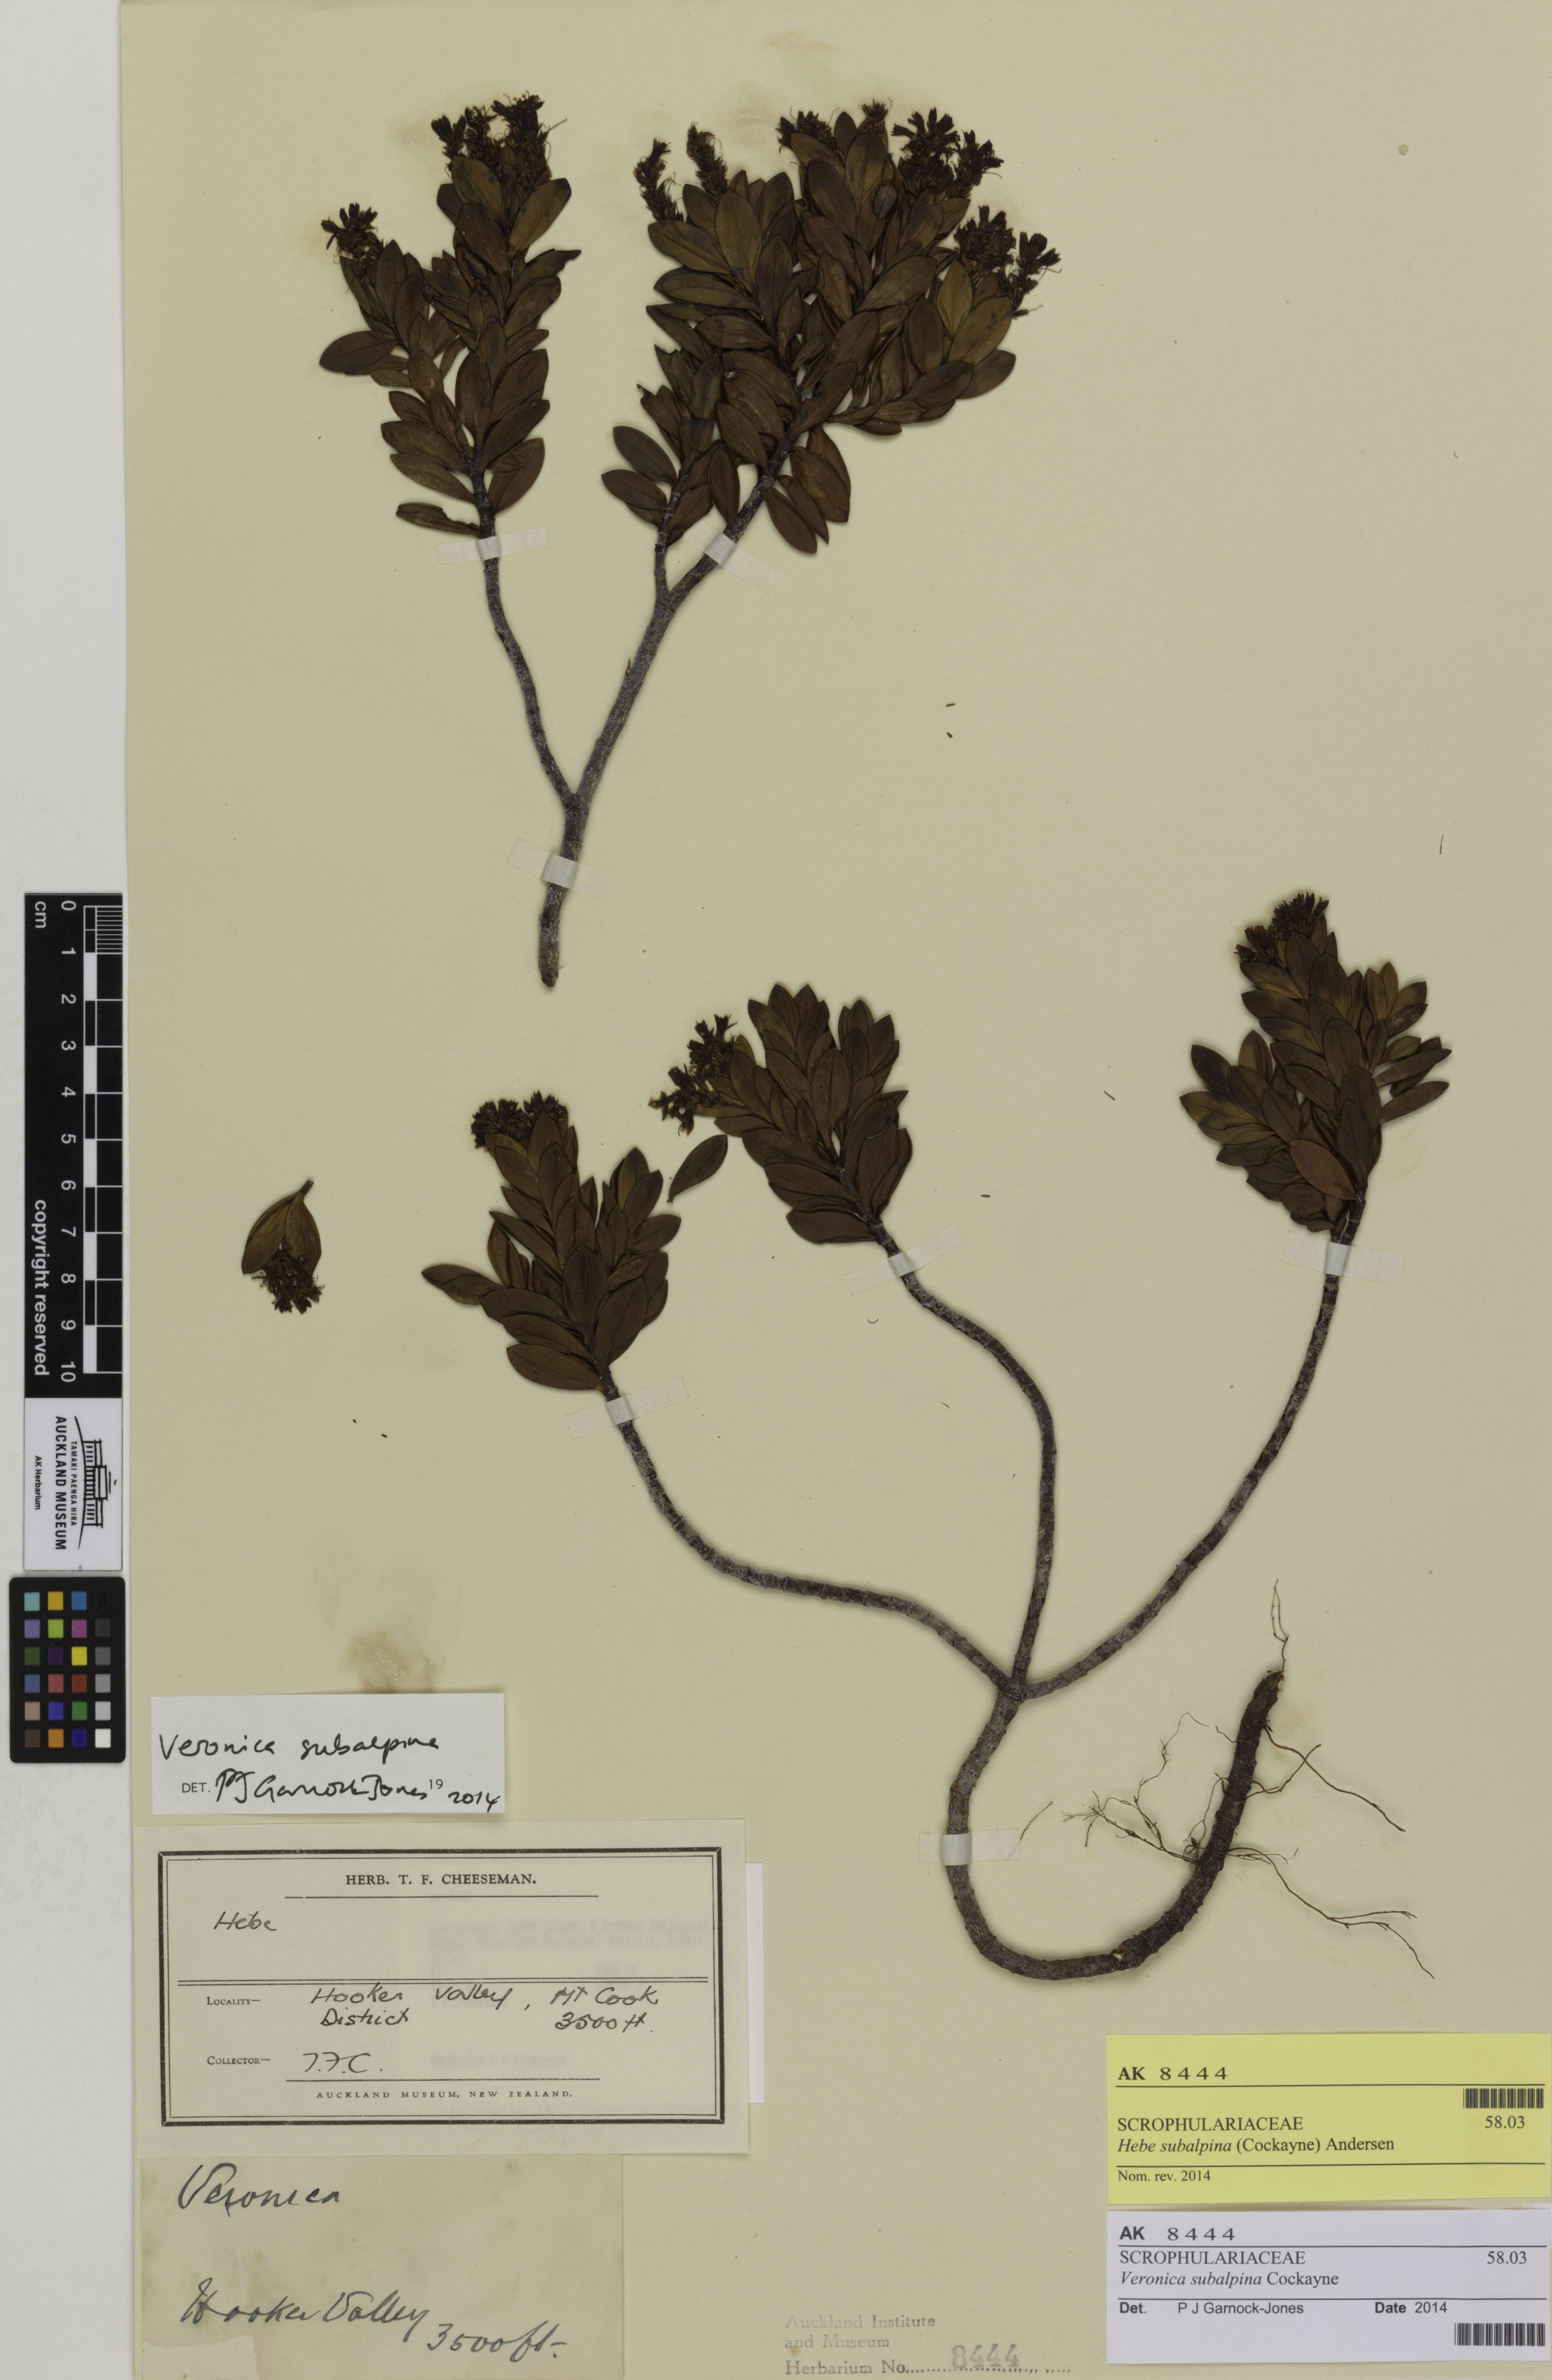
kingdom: Plantae
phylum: Tracheophyta
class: Magnoliopsida
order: Lamiales
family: Plantaginaceae
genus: Veronica
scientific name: Veronica subalpina
